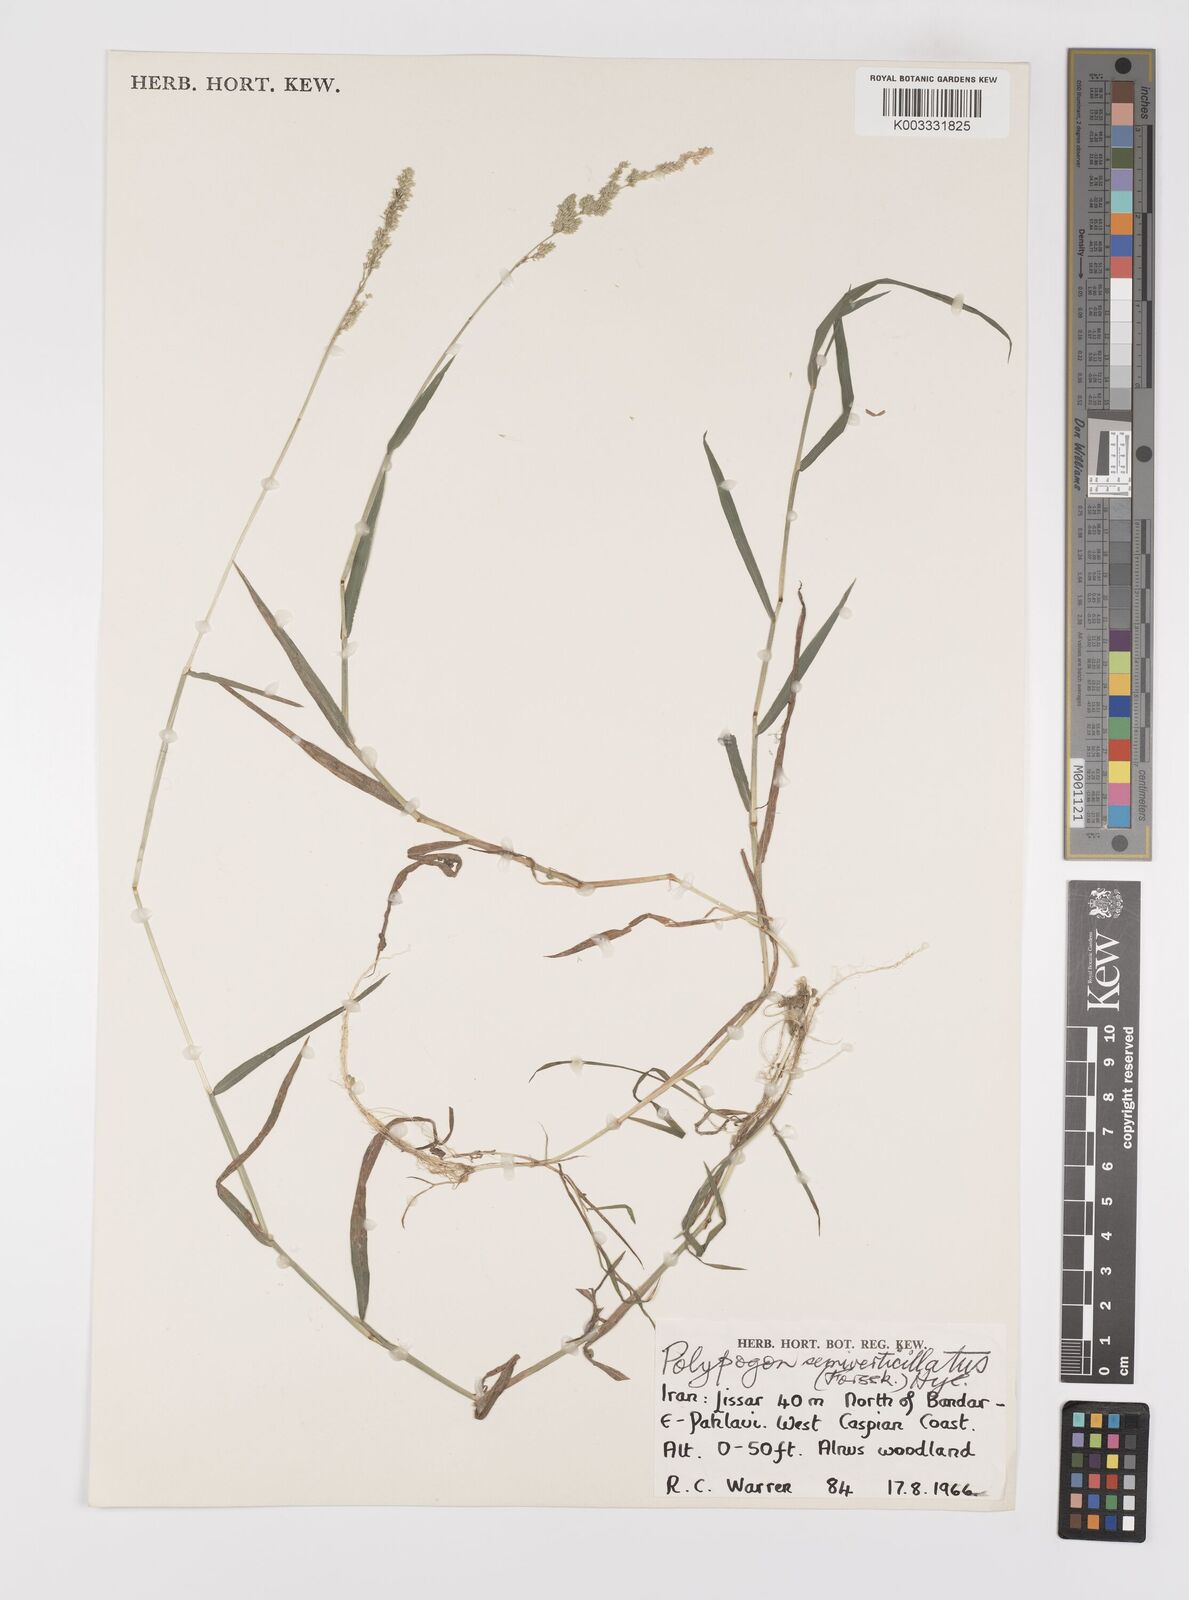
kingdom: Plantae
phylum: Tracheophyta
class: Liliopsida
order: Poales
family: Poaceae
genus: Polypogon
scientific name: Polypogon viridis
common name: Water bent
